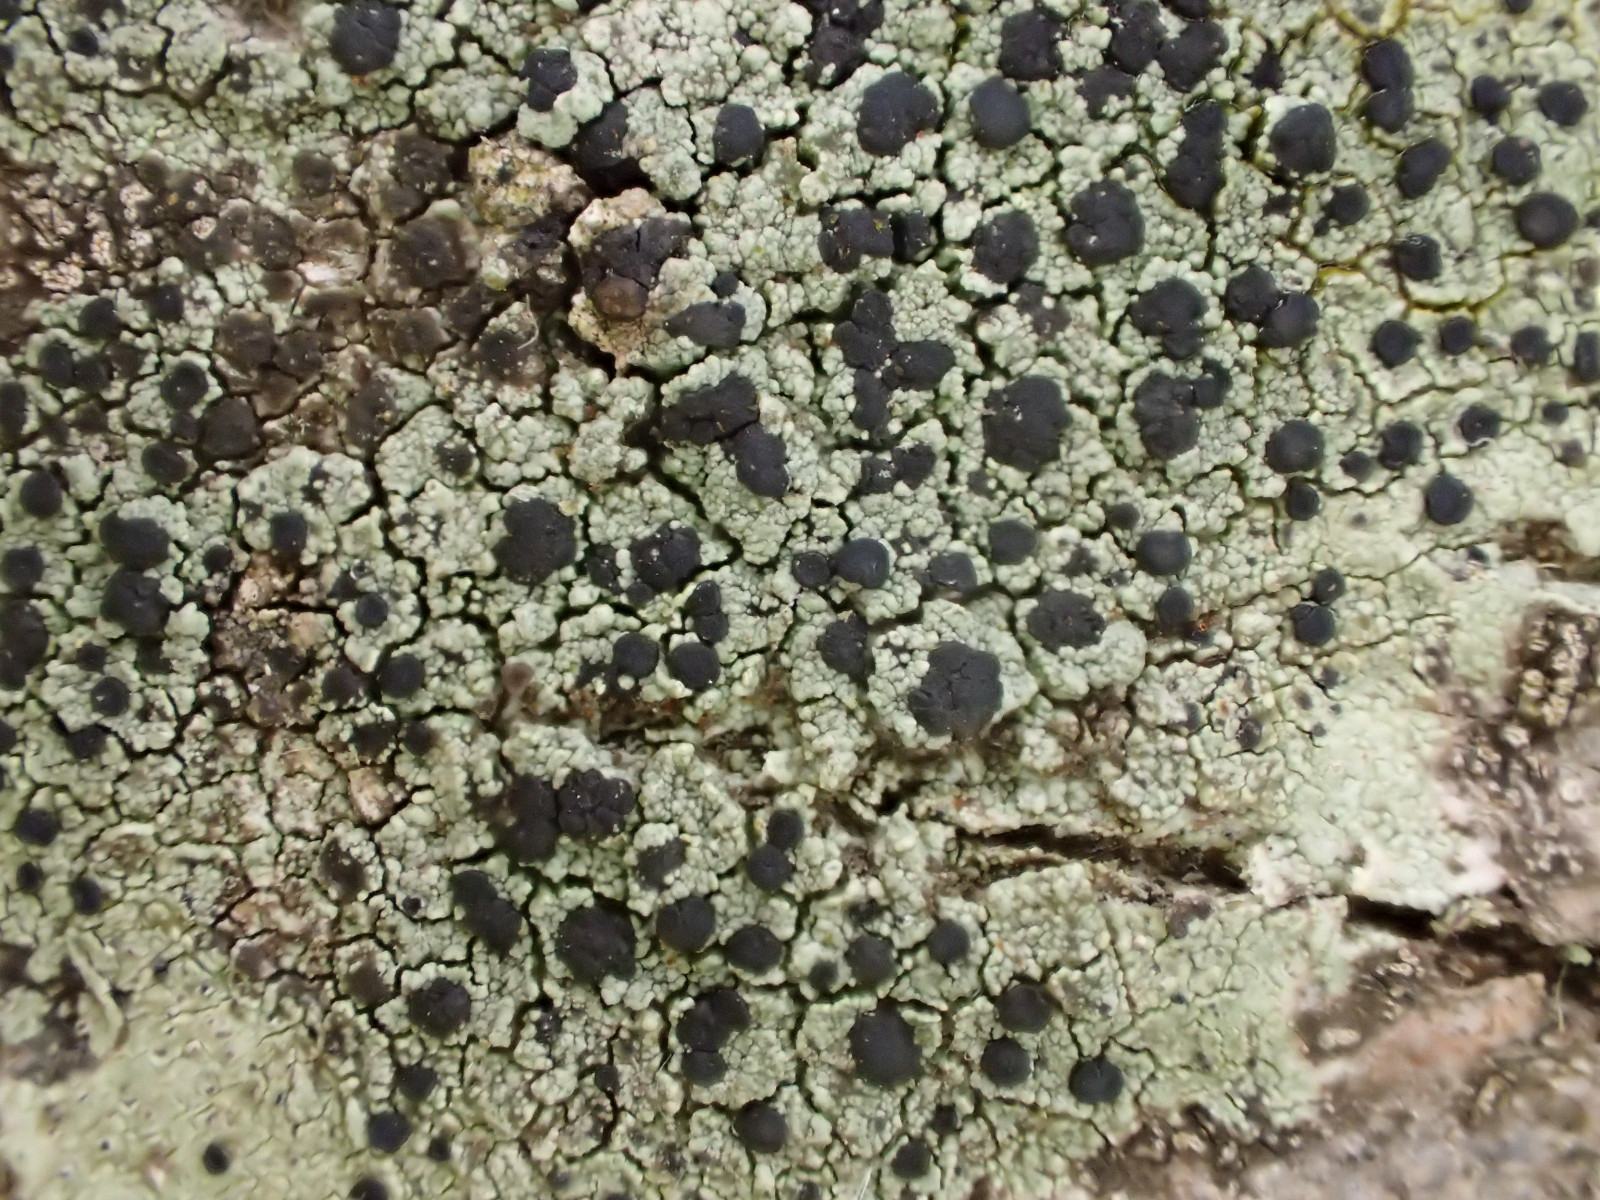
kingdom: Fungi
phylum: Ascomycota
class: Lecanoromycetes
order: Lecanorales
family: Lecanoraceae
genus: Lecidella
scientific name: Lecidella elaeochroma
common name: grågrøn skivelav
